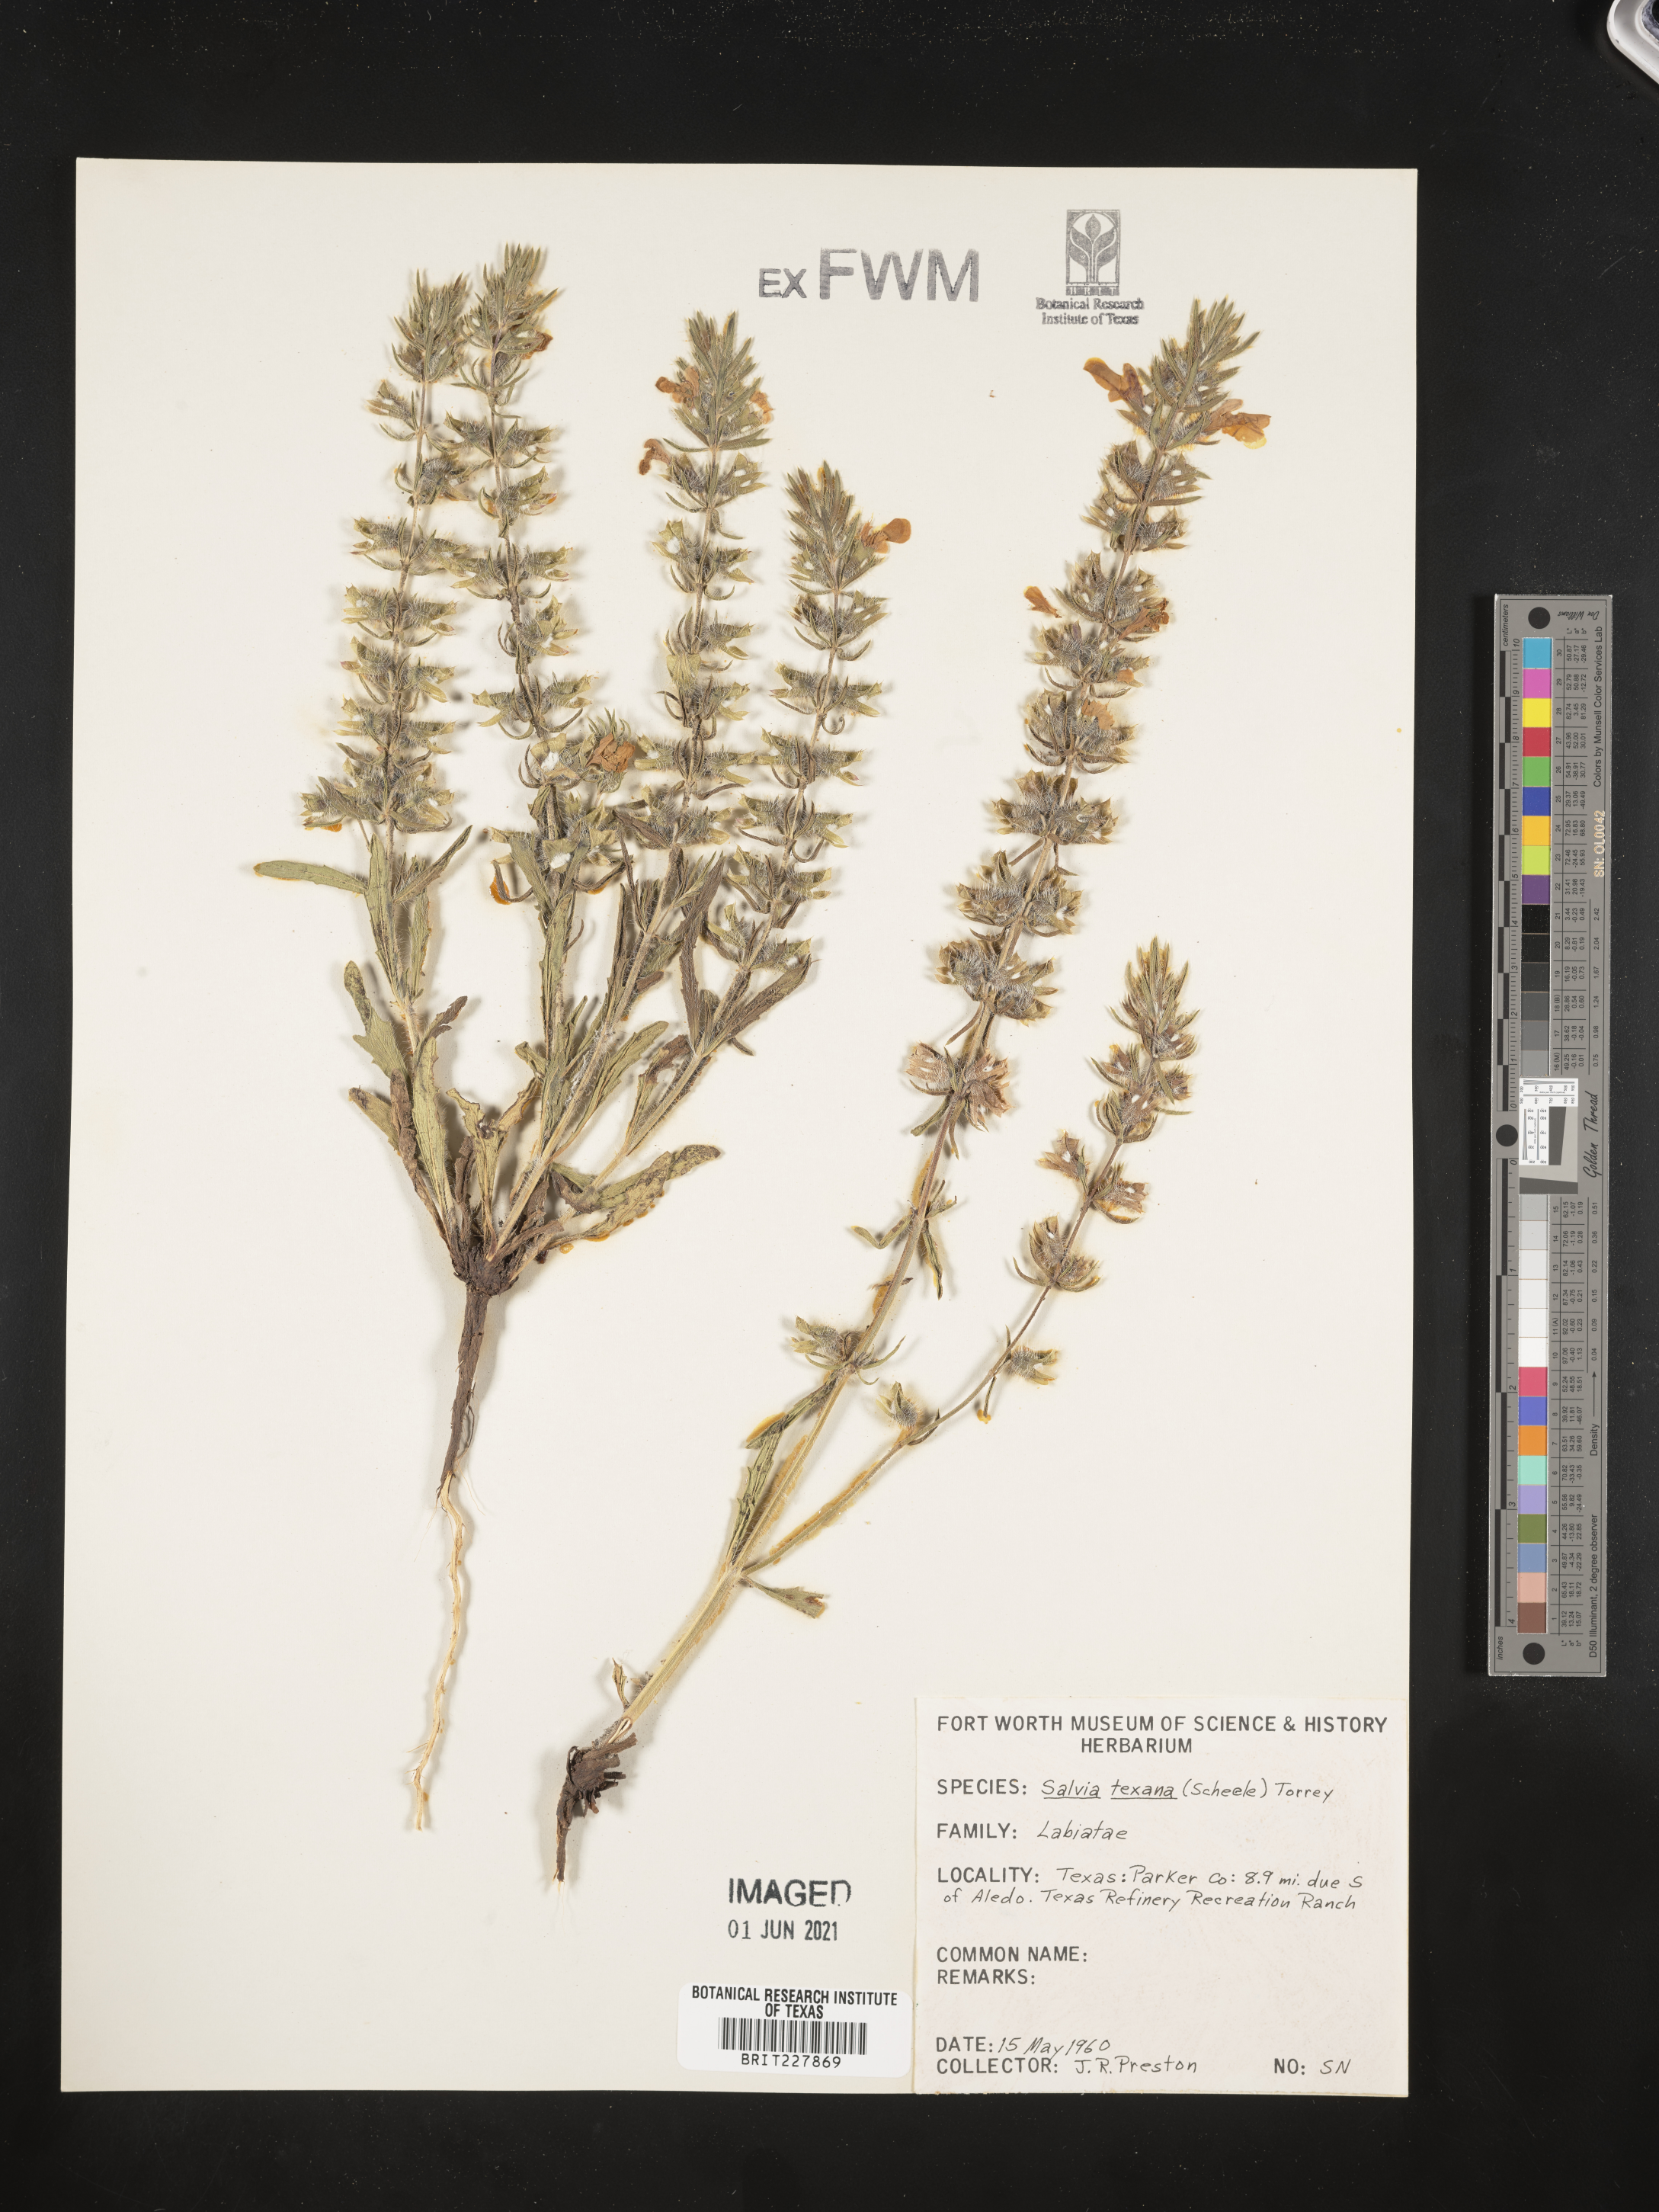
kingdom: Plantae
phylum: Tracheophyta
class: Magnoliopsida
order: Lamiales
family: Lamiaceae
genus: Salvia
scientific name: Salvia texana
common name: Texas sage
